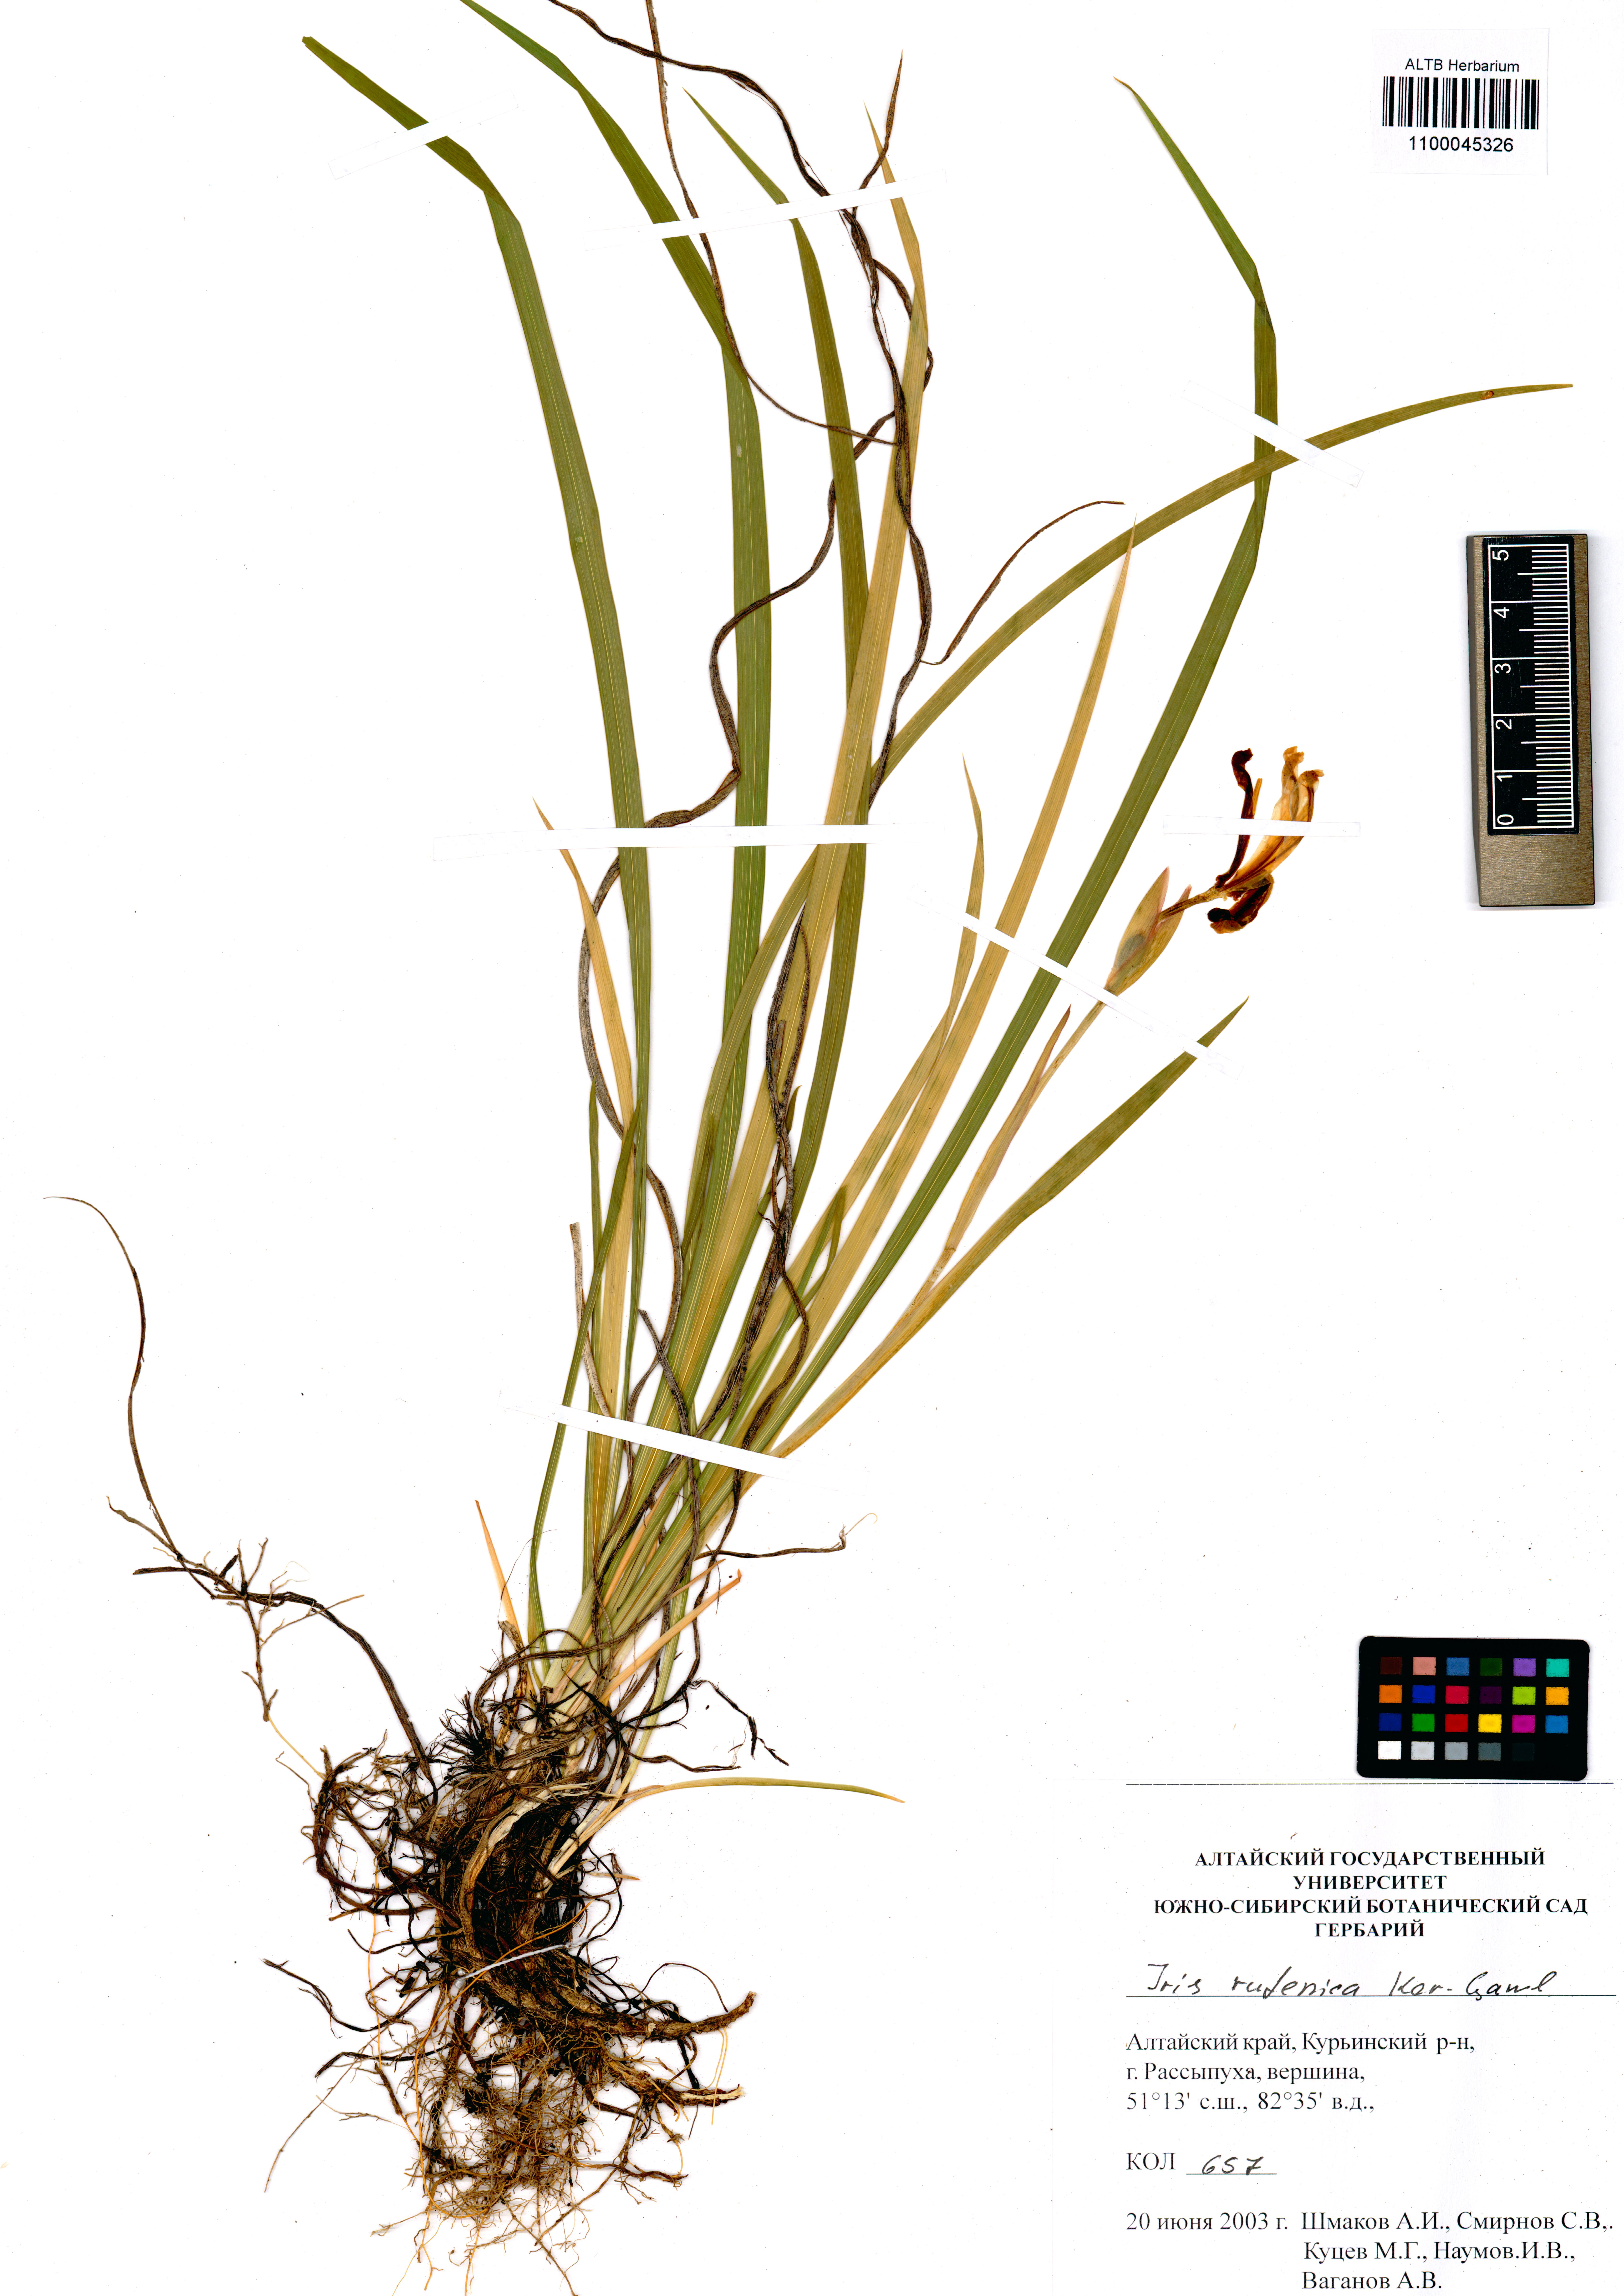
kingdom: Plantae
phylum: Tracheophyta
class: Liliopsida
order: Asparagales
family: Iridaceae
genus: Iris
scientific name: Iris ruthenica
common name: Purple-bract iris
